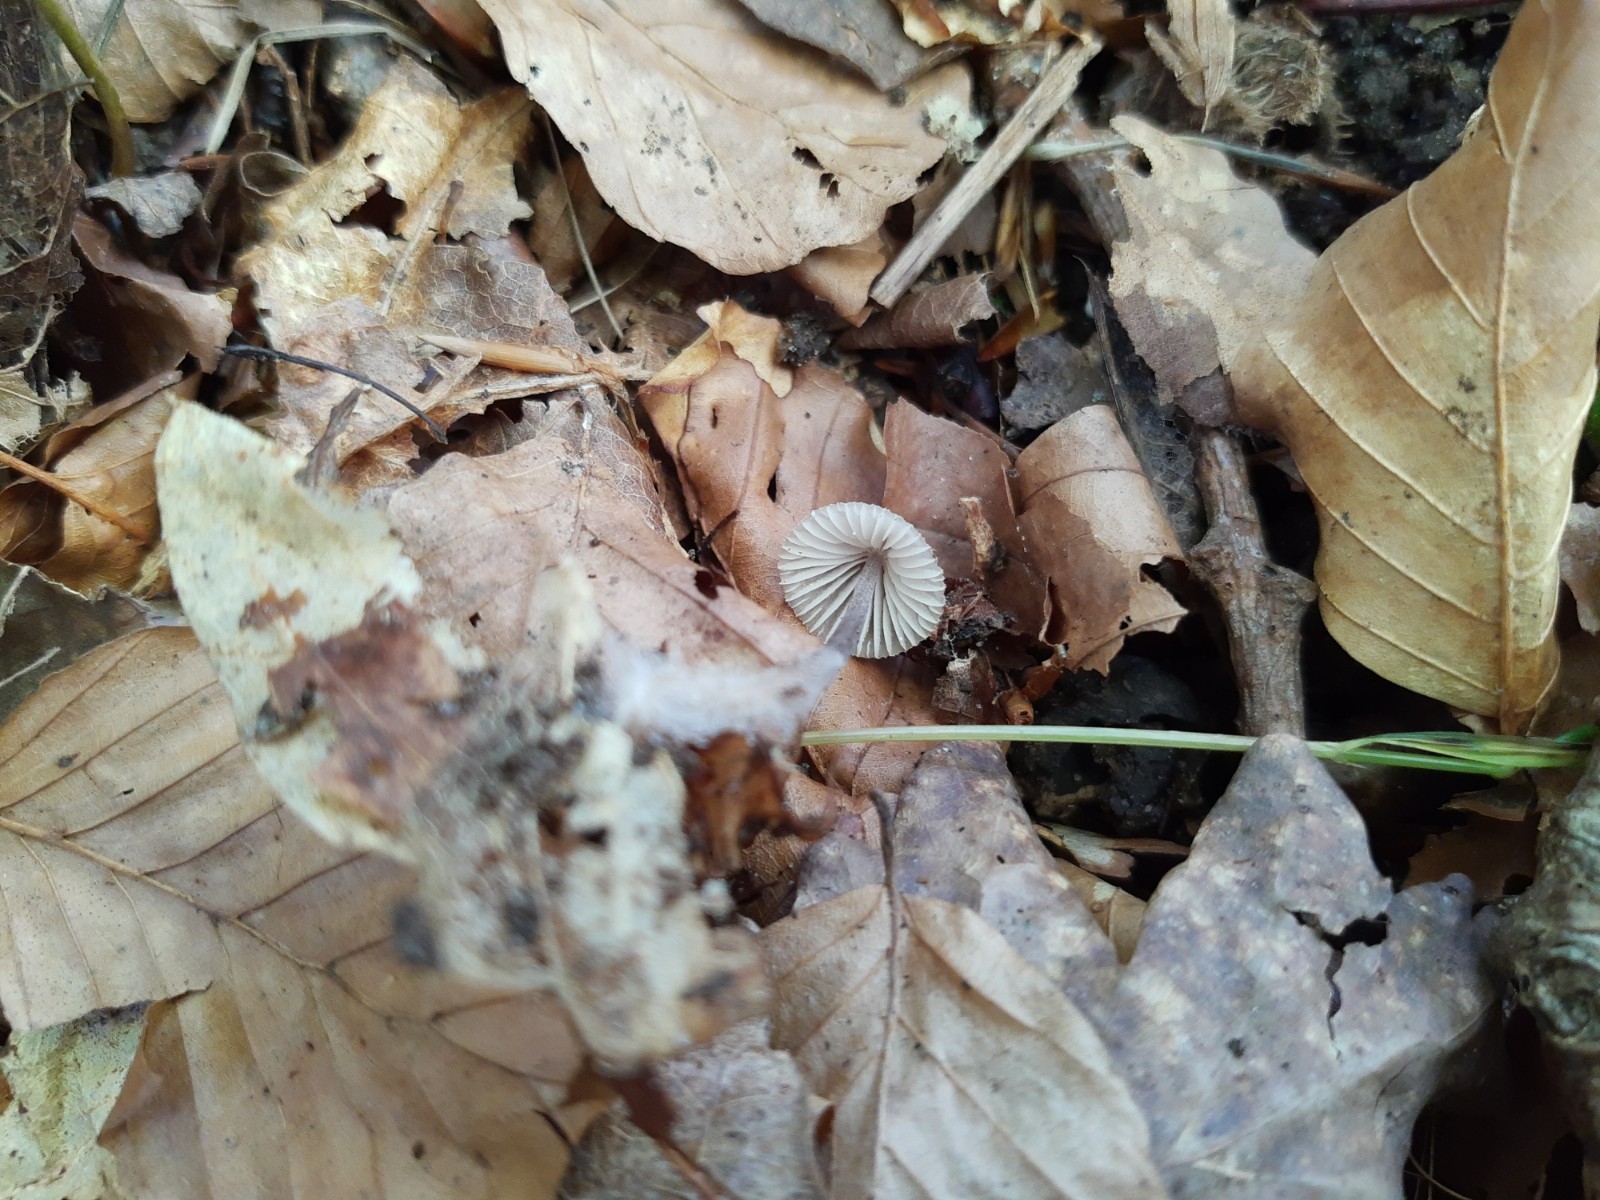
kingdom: Fungi
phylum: Basidiomycota
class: Agaricomycetes
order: Agaricales
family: Mycenaceae
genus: Mycena
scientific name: Mycena galopus
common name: hvidmælket huesvamp
